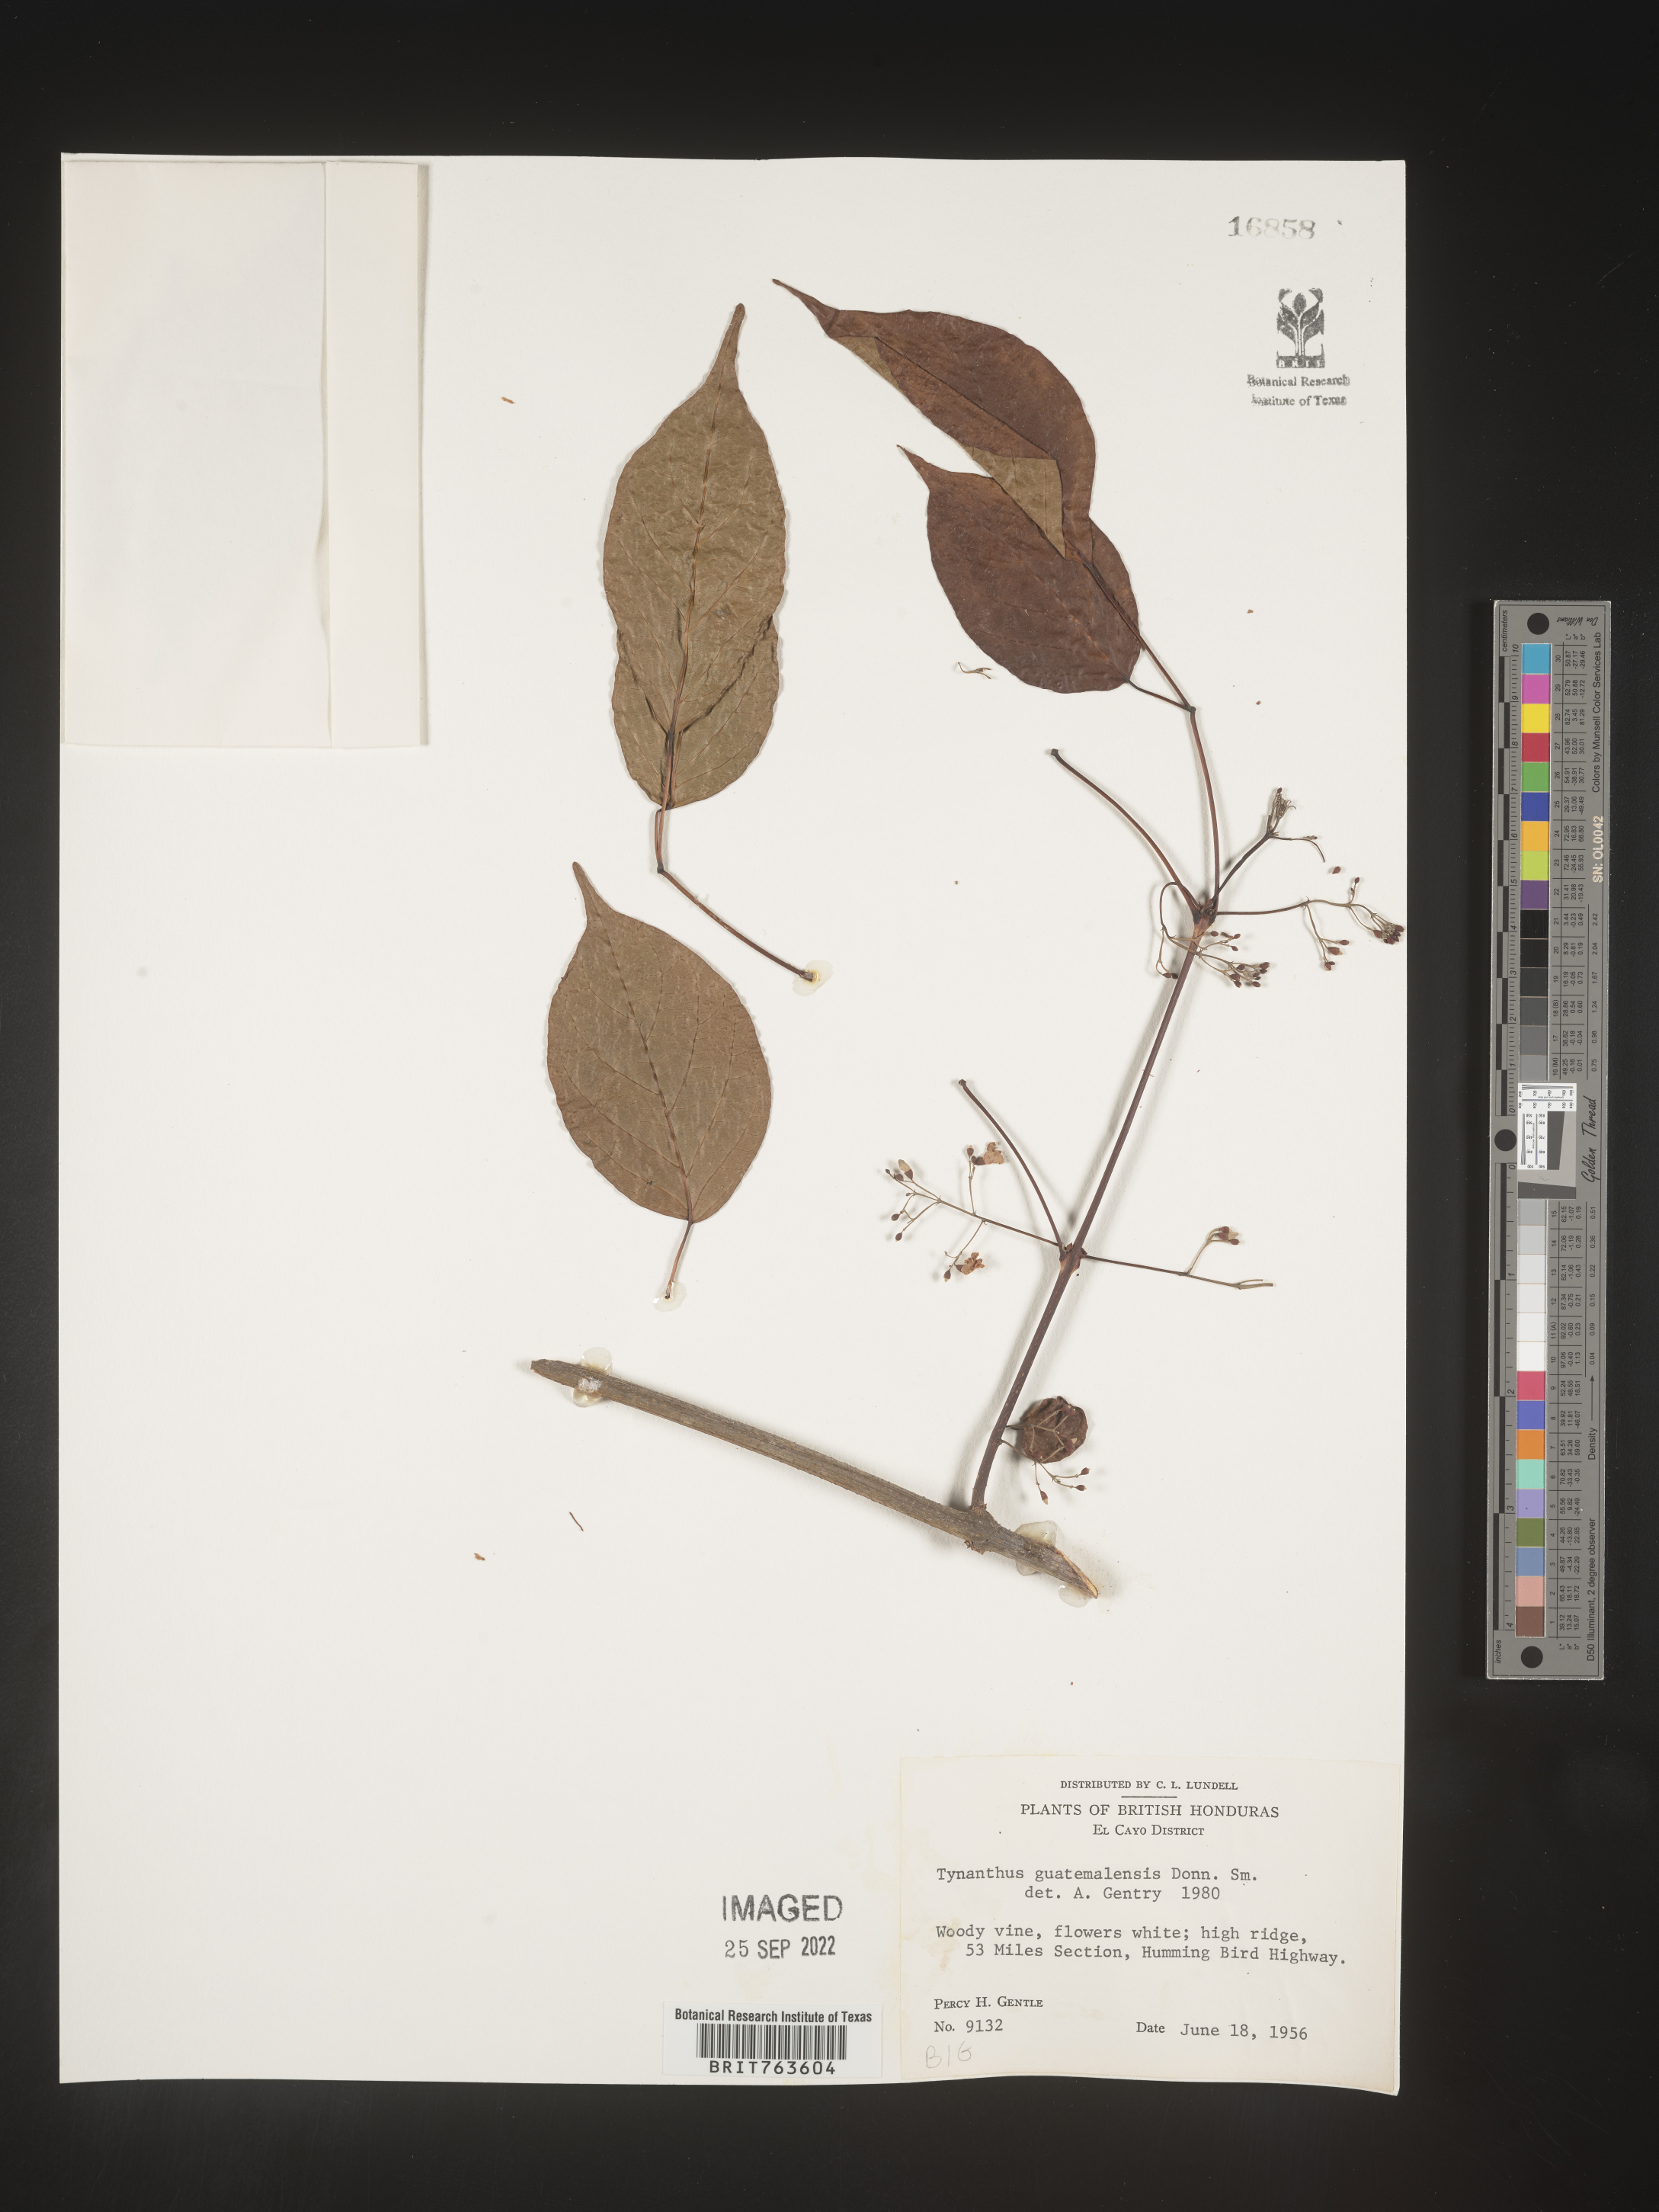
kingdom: Plantae
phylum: Tracheophyta
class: Magnoliopsida
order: Lamiales
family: Bignoniaceae
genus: Tynanthus
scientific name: Tynanthus
